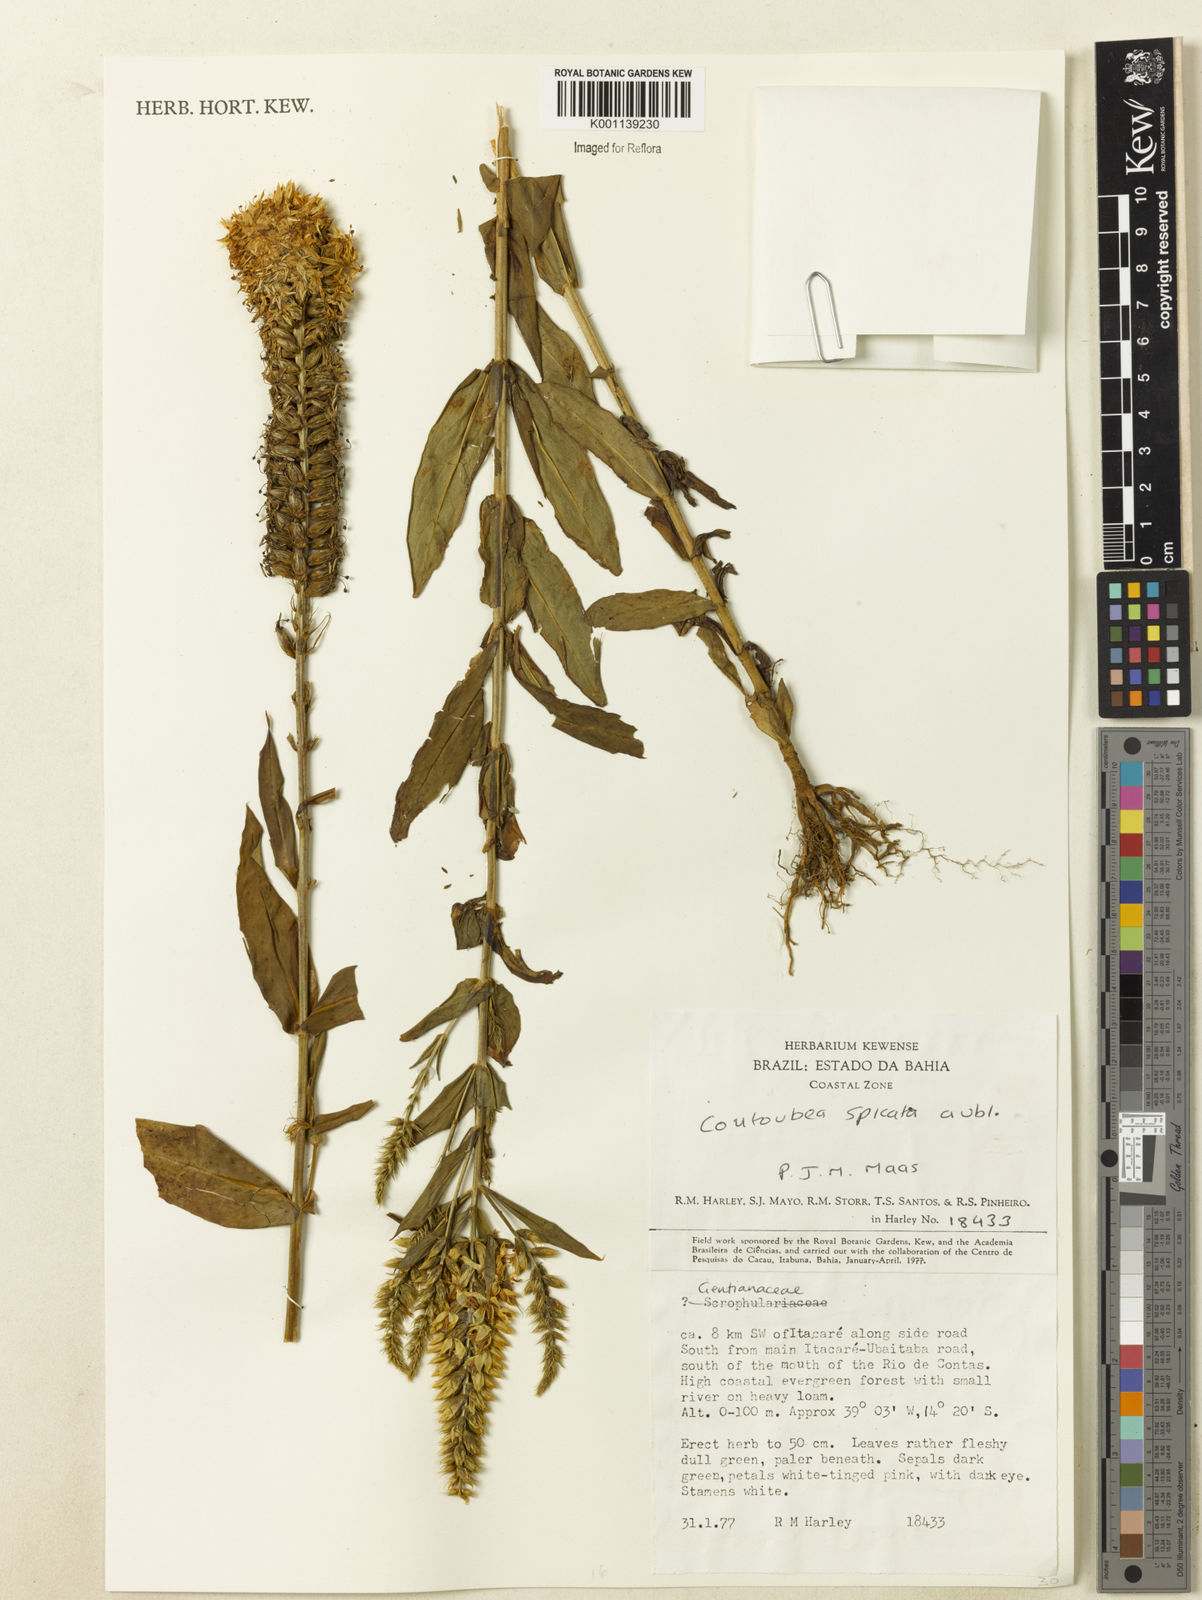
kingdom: Plantae
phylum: Tracheophyta
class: Magnoliopsida
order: Gentianales
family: Gentianaceae
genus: Coutoubea
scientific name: Coutoubea spicata
